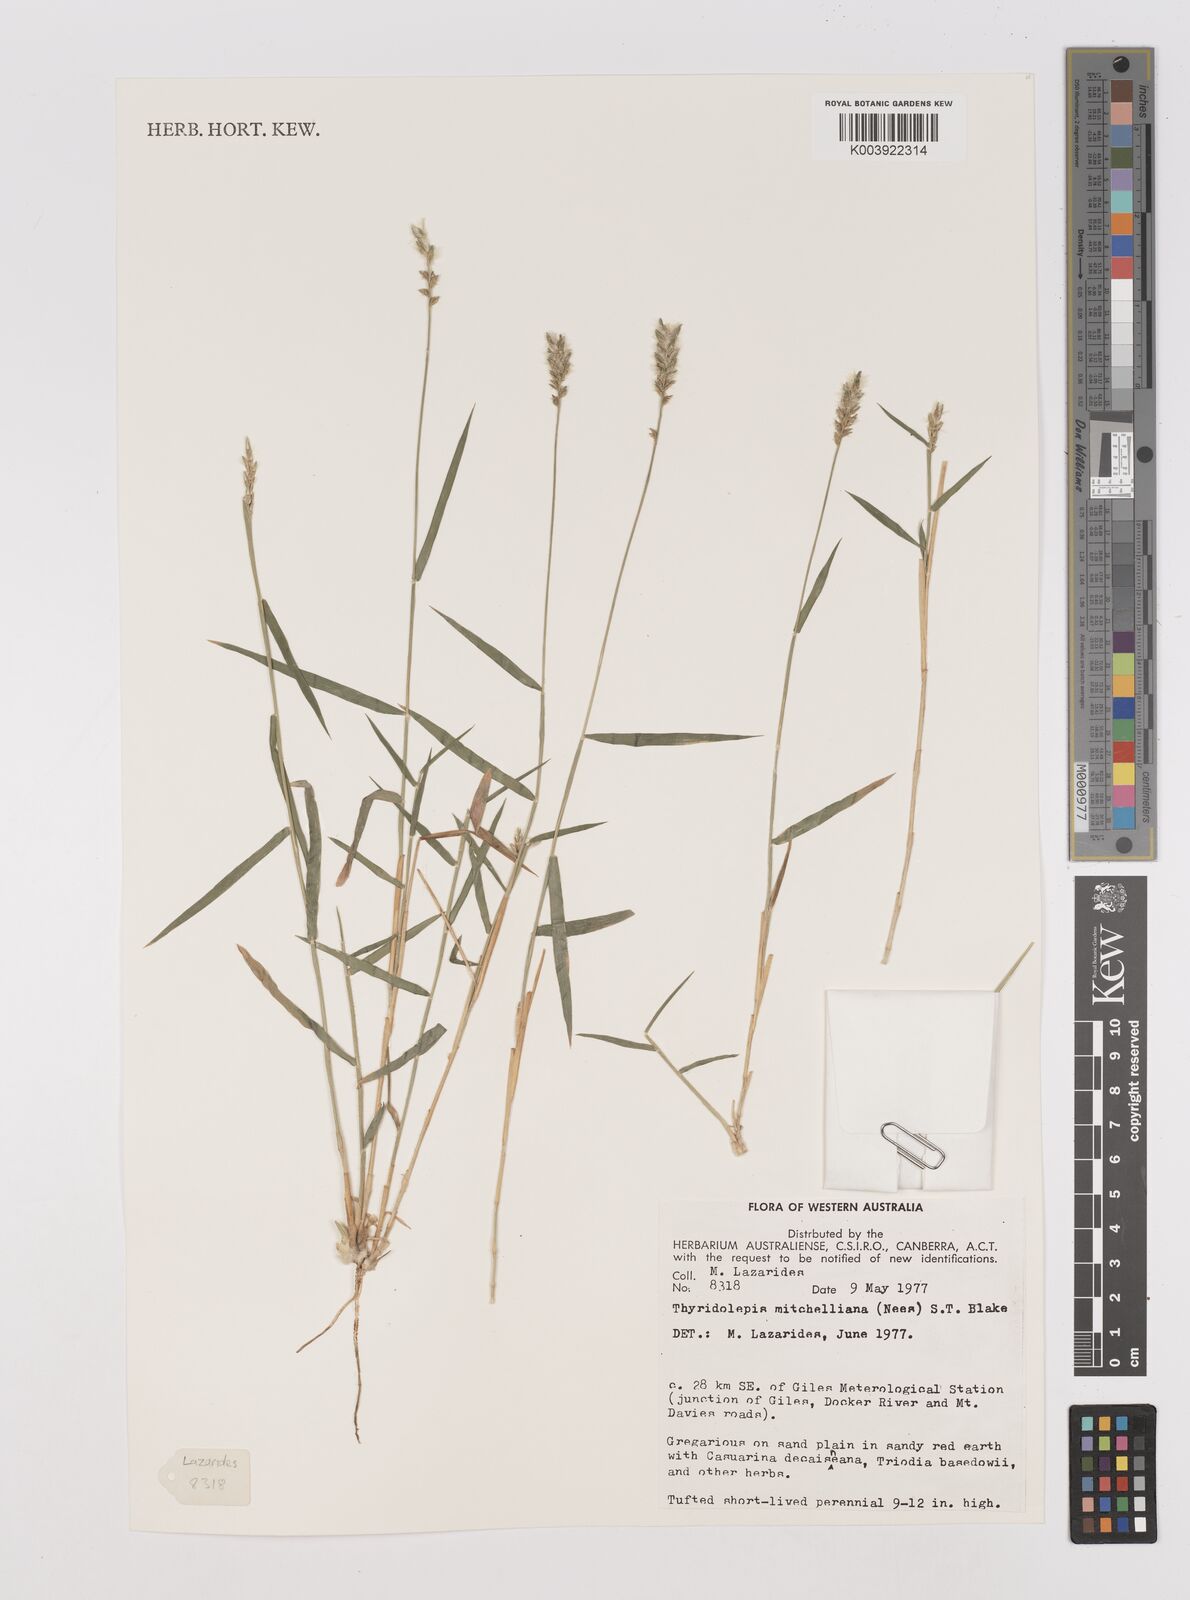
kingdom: Plantae
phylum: Tracheophyta
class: Liliopsida
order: Poales
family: Poaceae
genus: Thyridolepis
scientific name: Thyridolepis mitchelliana
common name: Rock tassel grass
